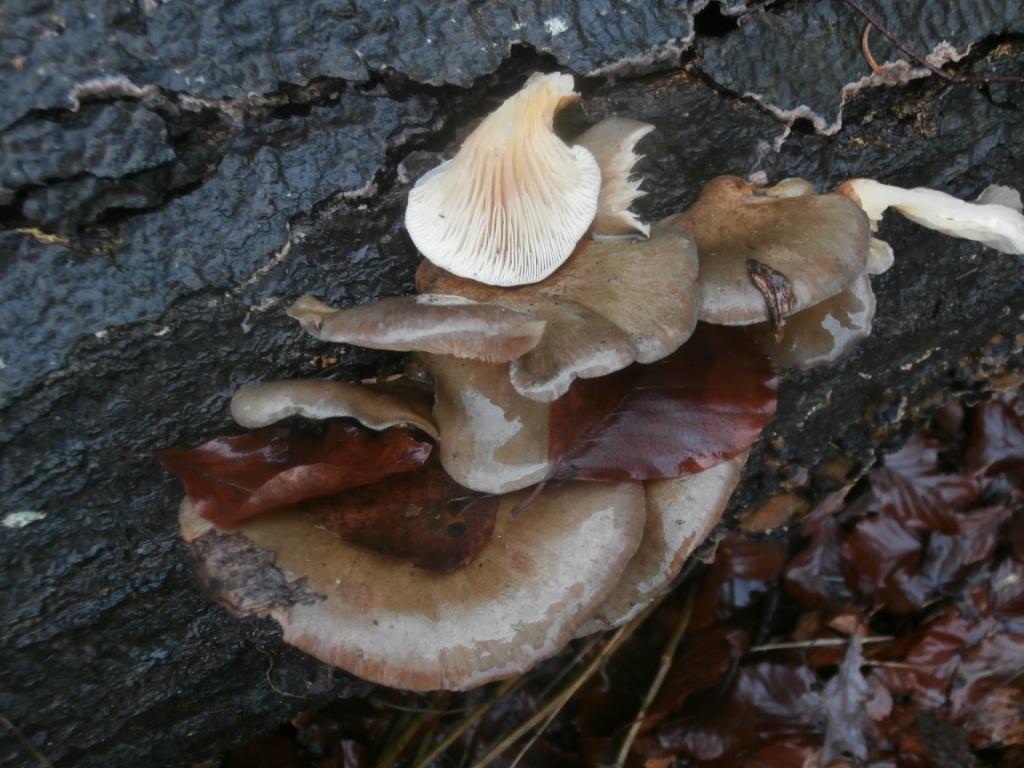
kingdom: Fungi
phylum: Basidiomycota
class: Agaricomycetes
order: Agaricales
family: Sarcomyxaceae
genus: Sarcomyxa
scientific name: Sarcomyxa serotina
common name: gummihat
